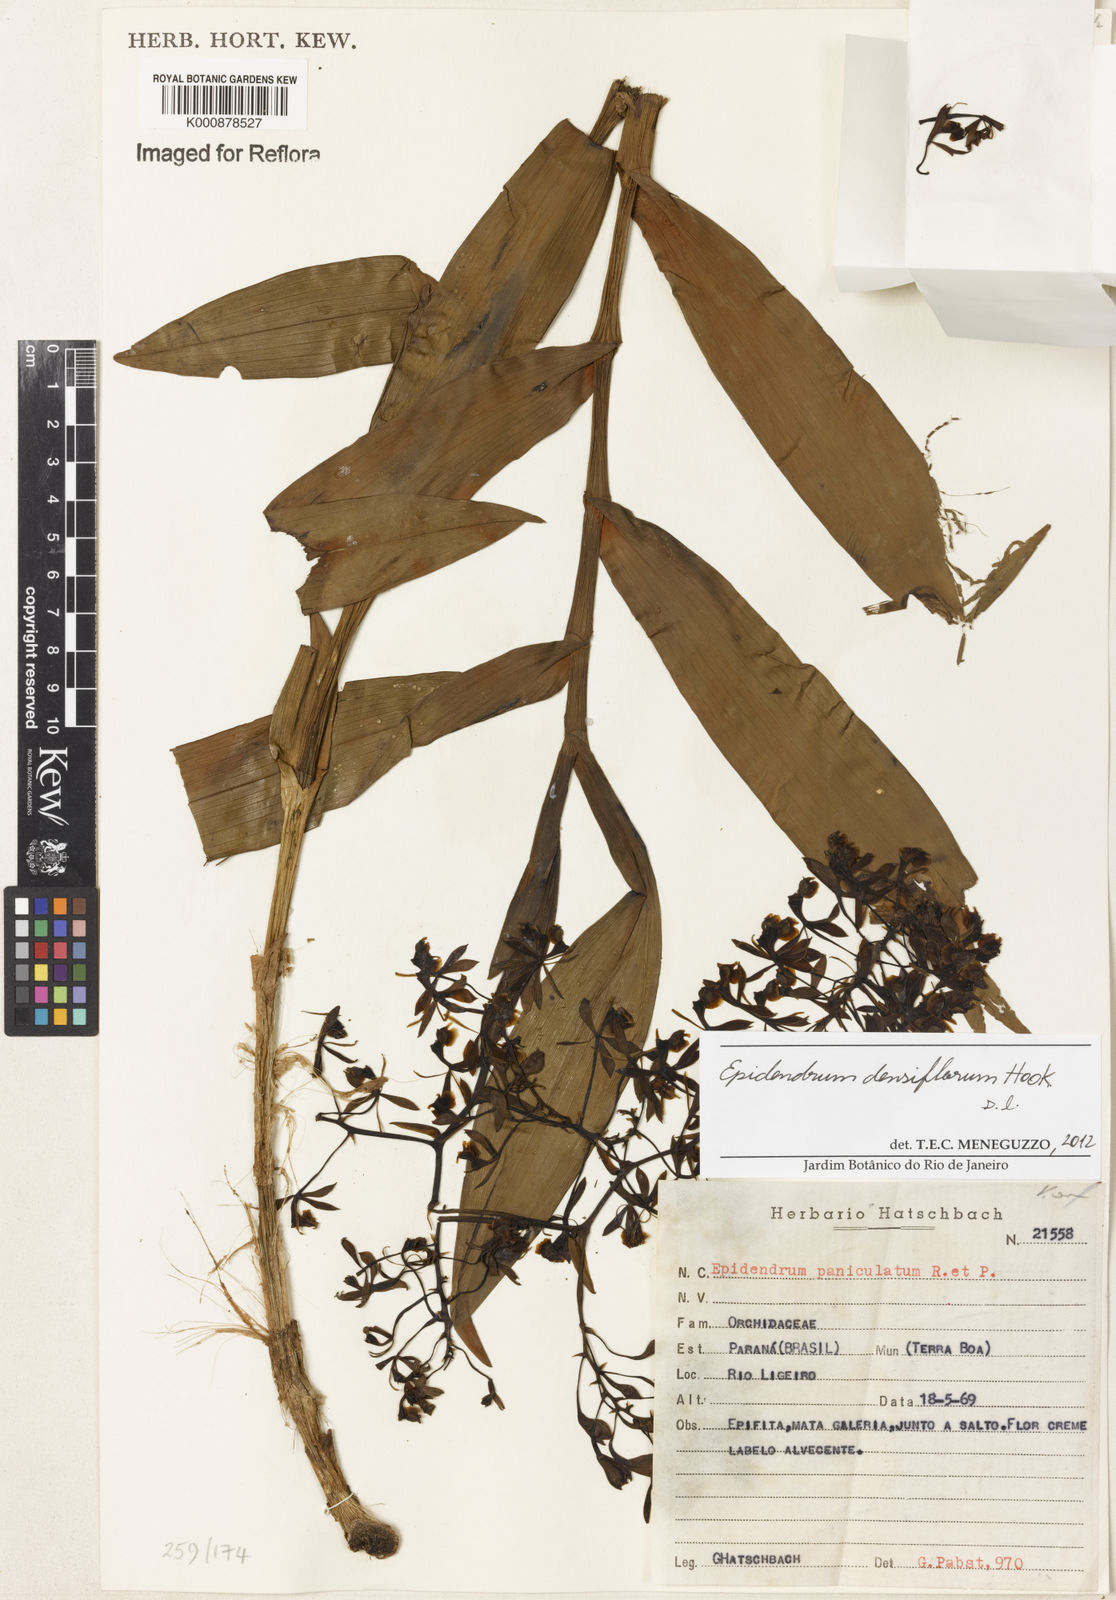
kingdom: Plantae
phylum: Tracheophyta
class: Liliopsida
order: Asparagales
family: Orchidaceae
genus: Epidendrum
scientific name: Epidendrum densiflorum
